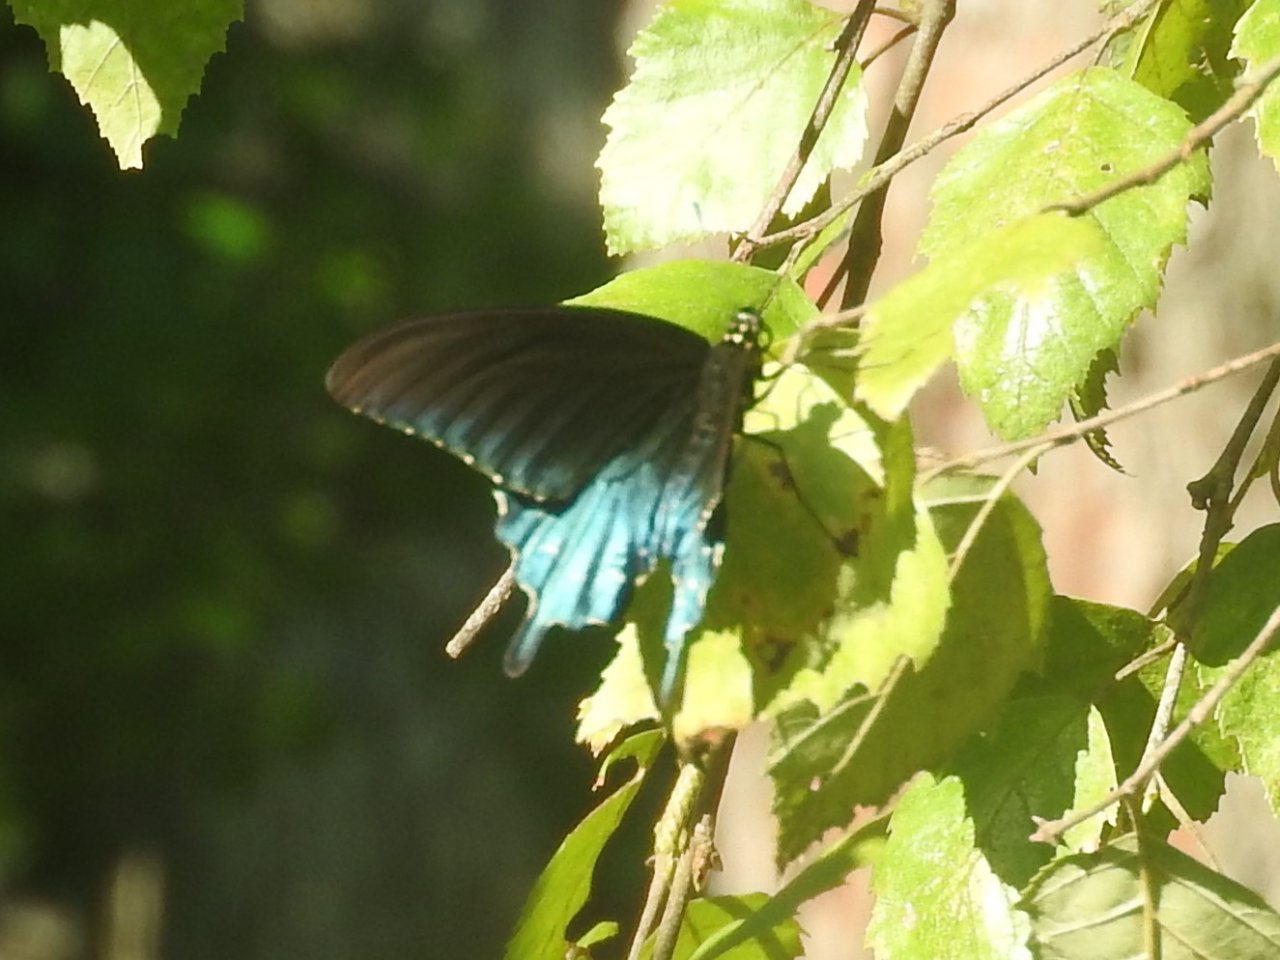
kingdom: Animalia
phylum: Arthropoda
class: Insecta
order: Lepidoptera
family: Papilionidae
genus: Battus
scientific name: Battus philenor
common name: Pipevine Swallowtail
